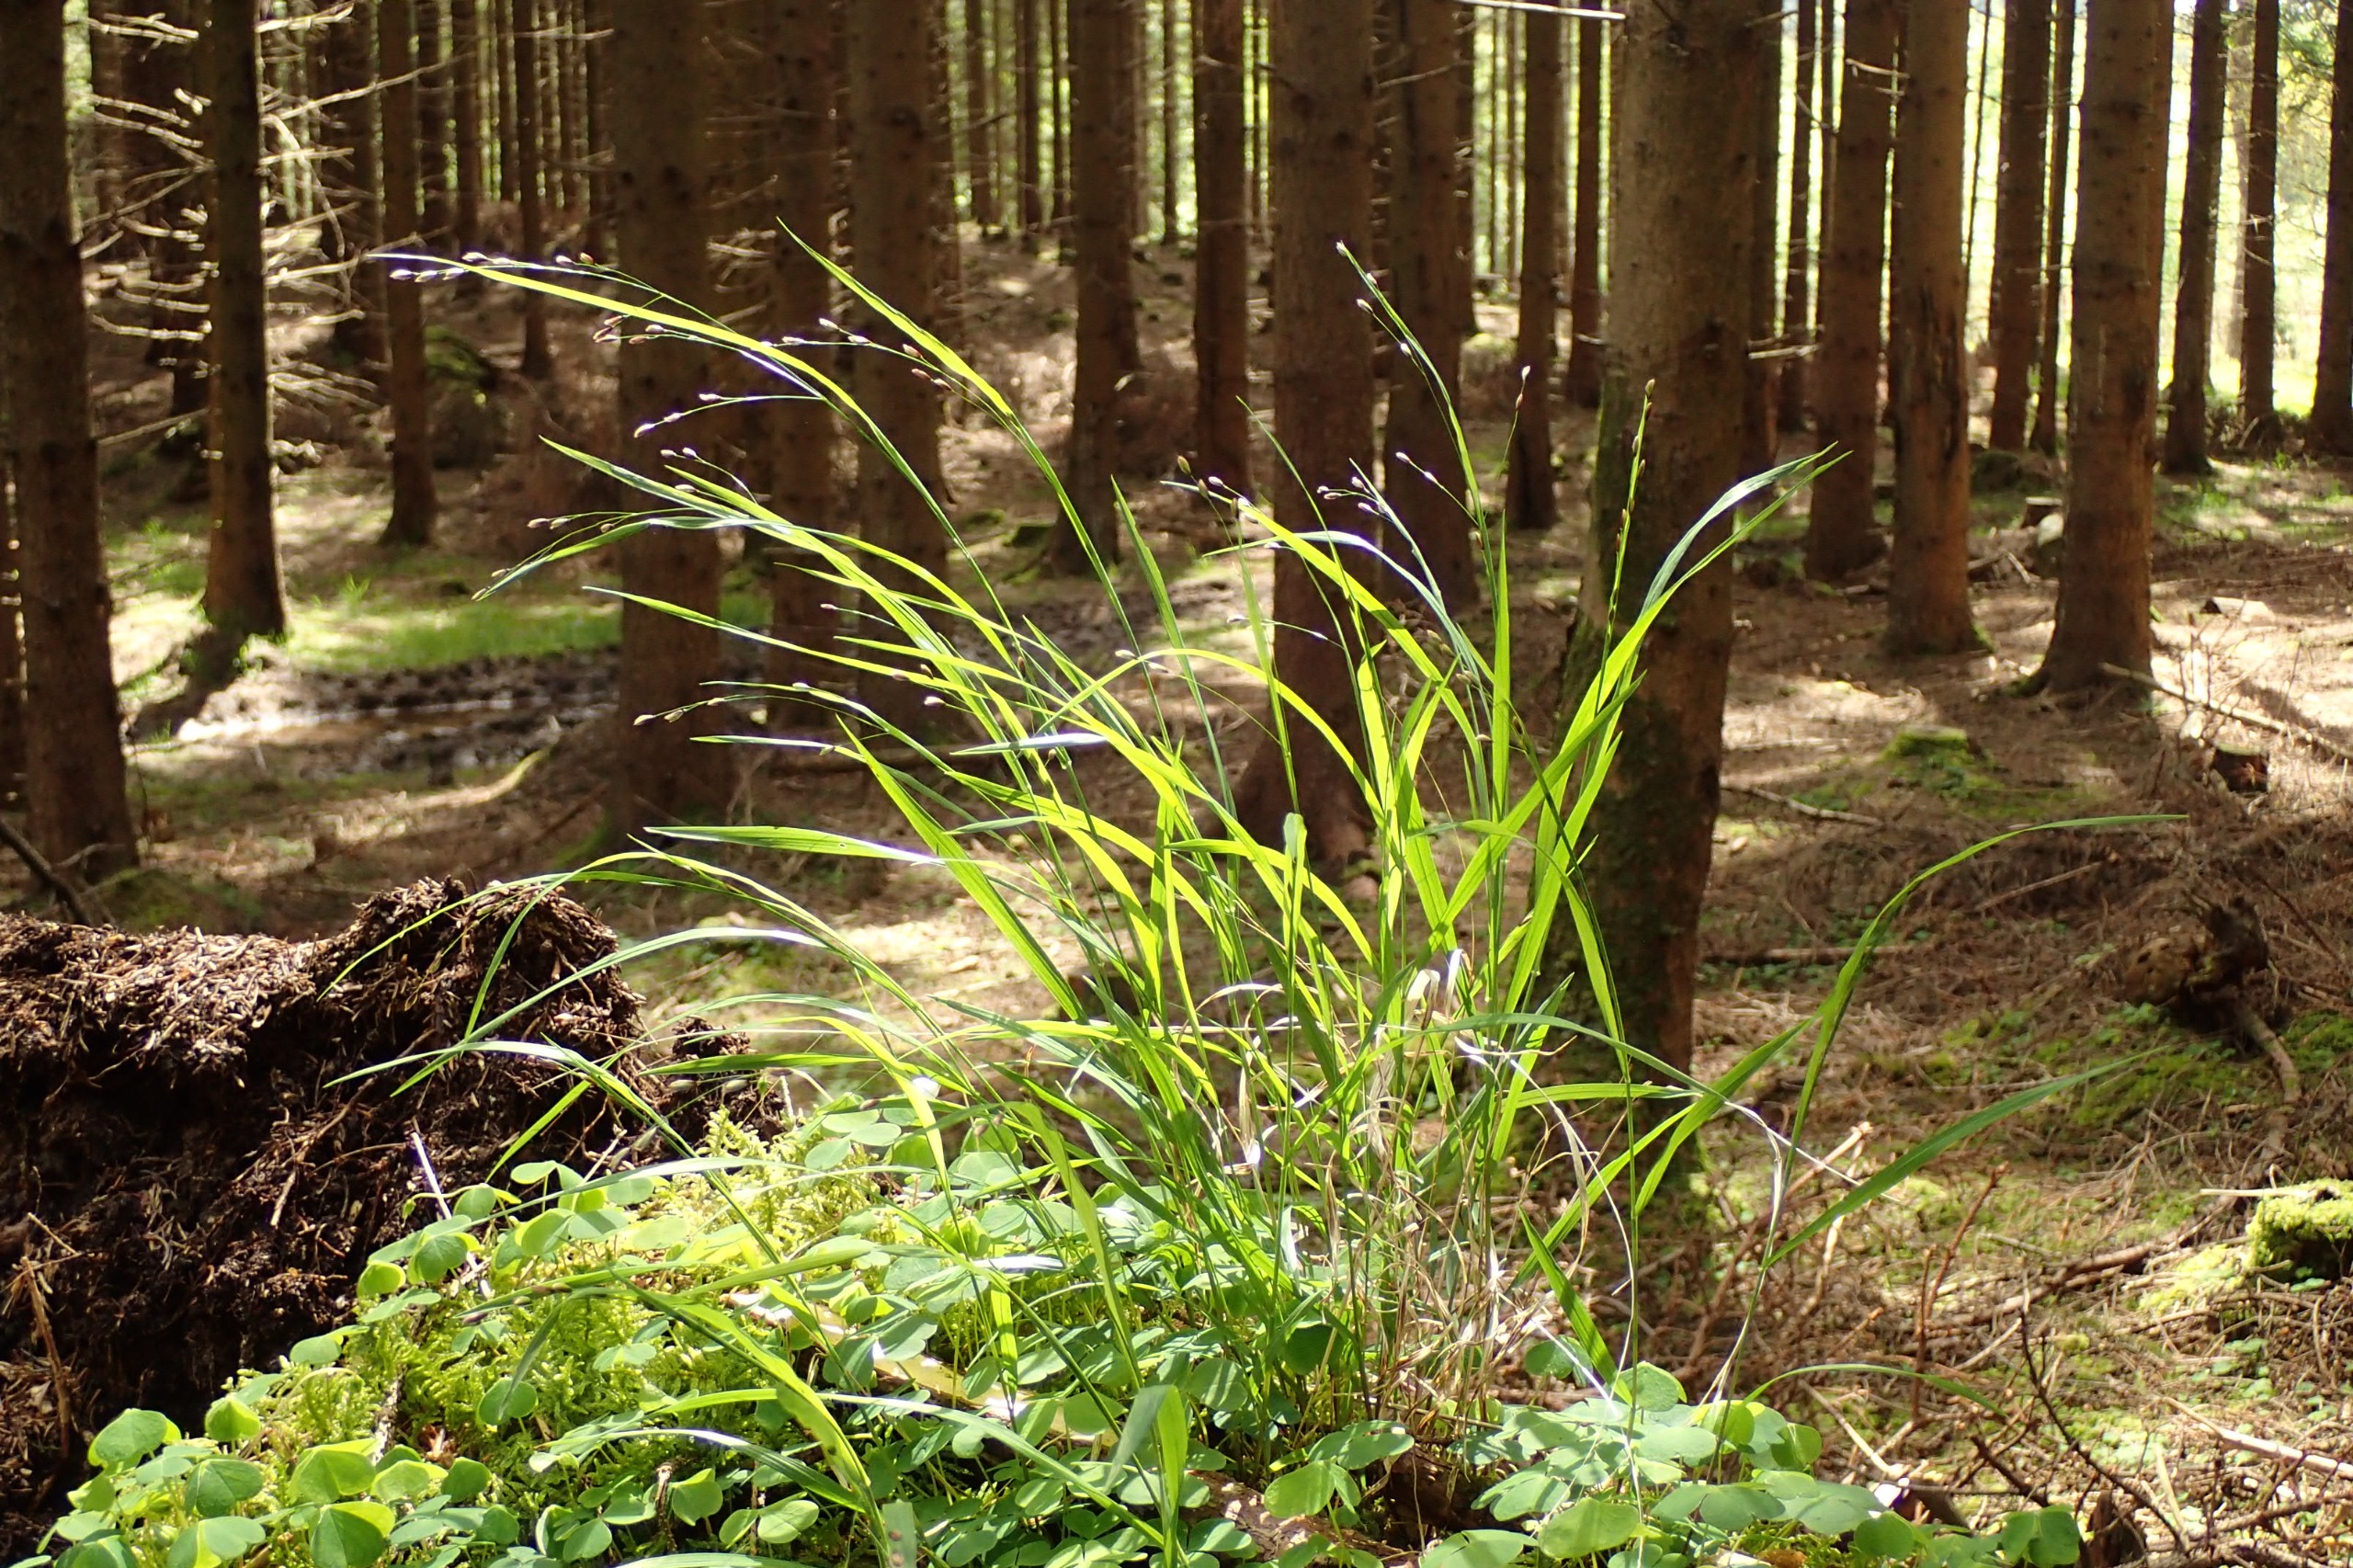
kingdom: Plantae
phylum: Tracheophyta
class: Liliopsida
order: Poales
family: Poaceae
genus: Melica
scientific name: Melica uniflora
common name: Enblomstret flitteraks
